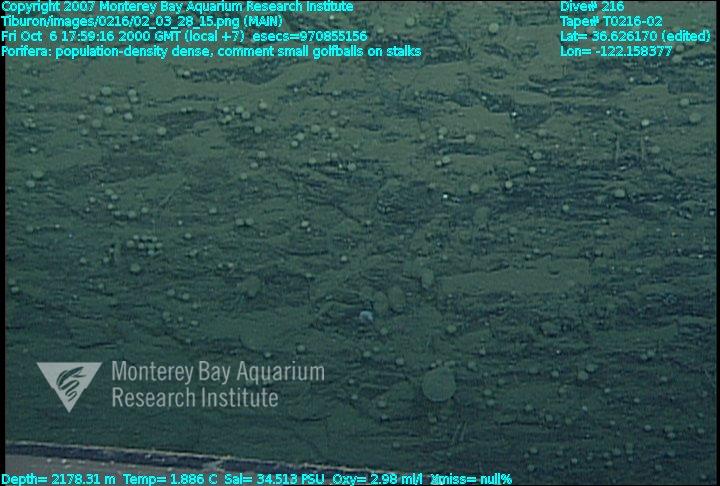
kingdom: Animalia
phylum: Porifera
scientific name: Porifera
